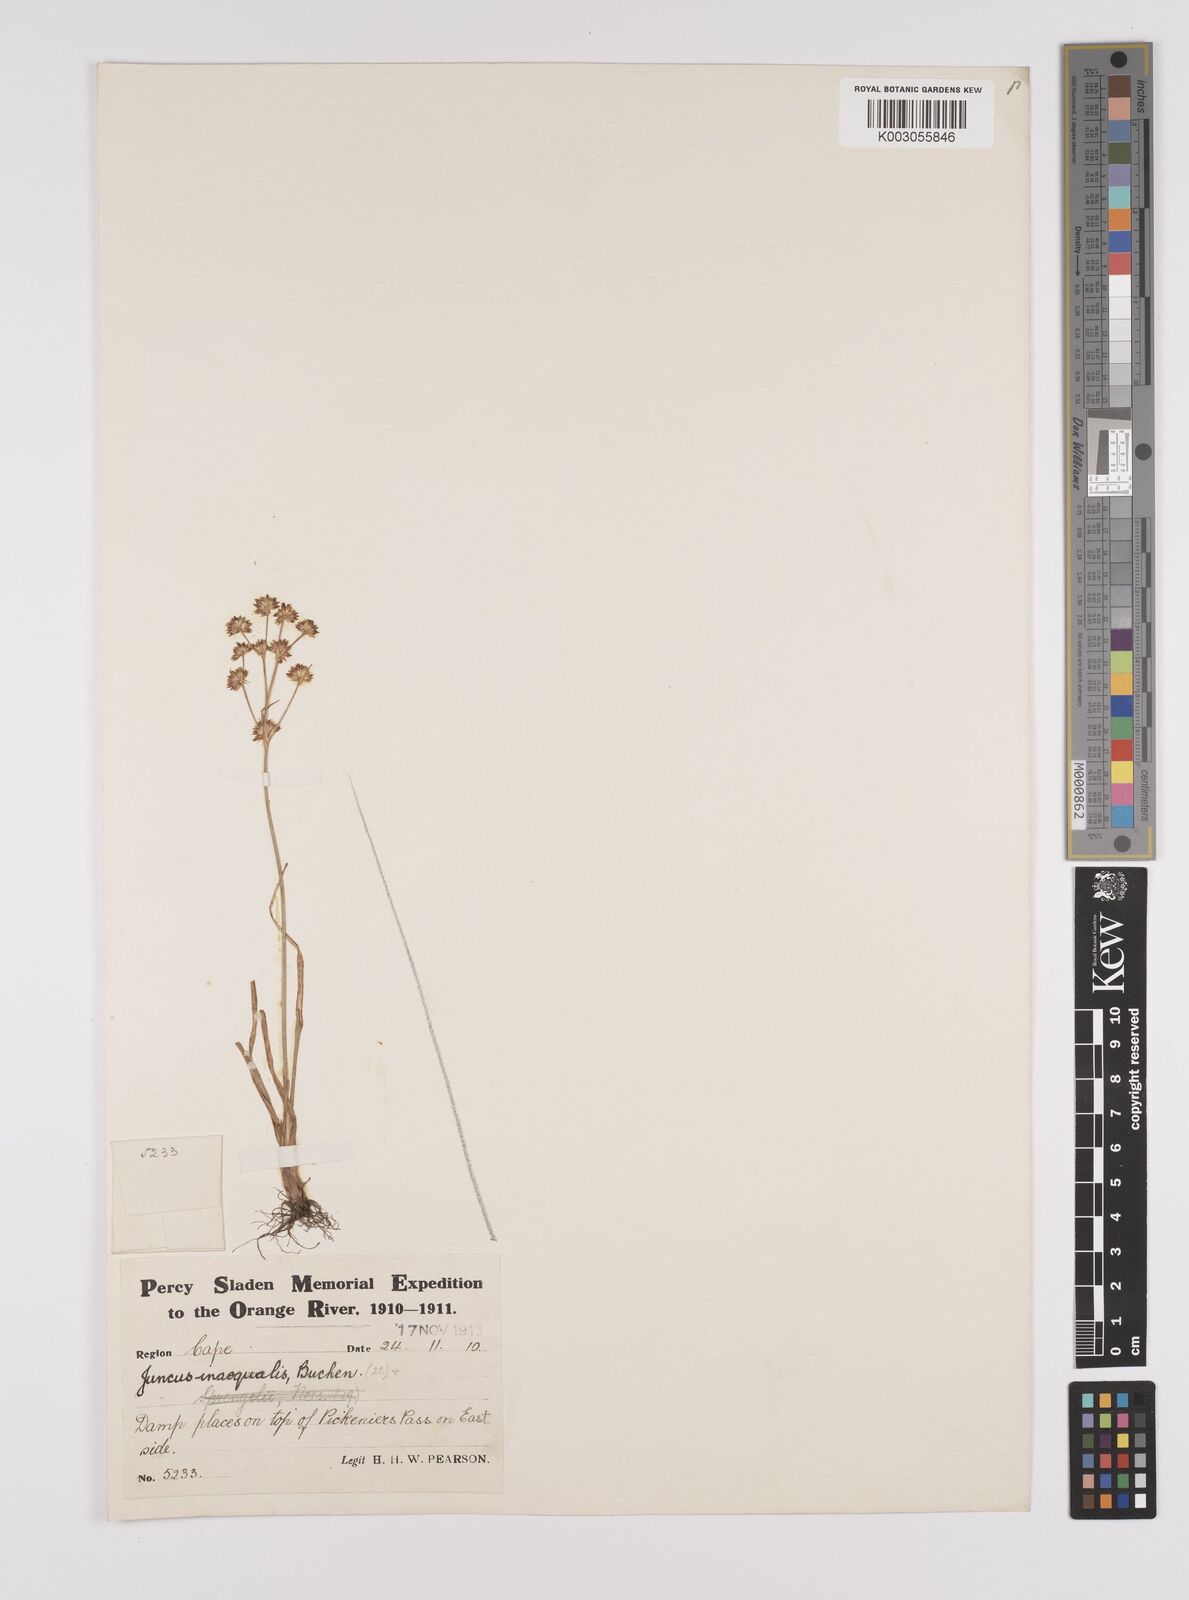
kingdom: Plantae
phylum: Tracheophyta
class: Liliopsida
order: Poales
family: Juncaceae
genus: Juncus
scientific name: Juncus cephalotes
